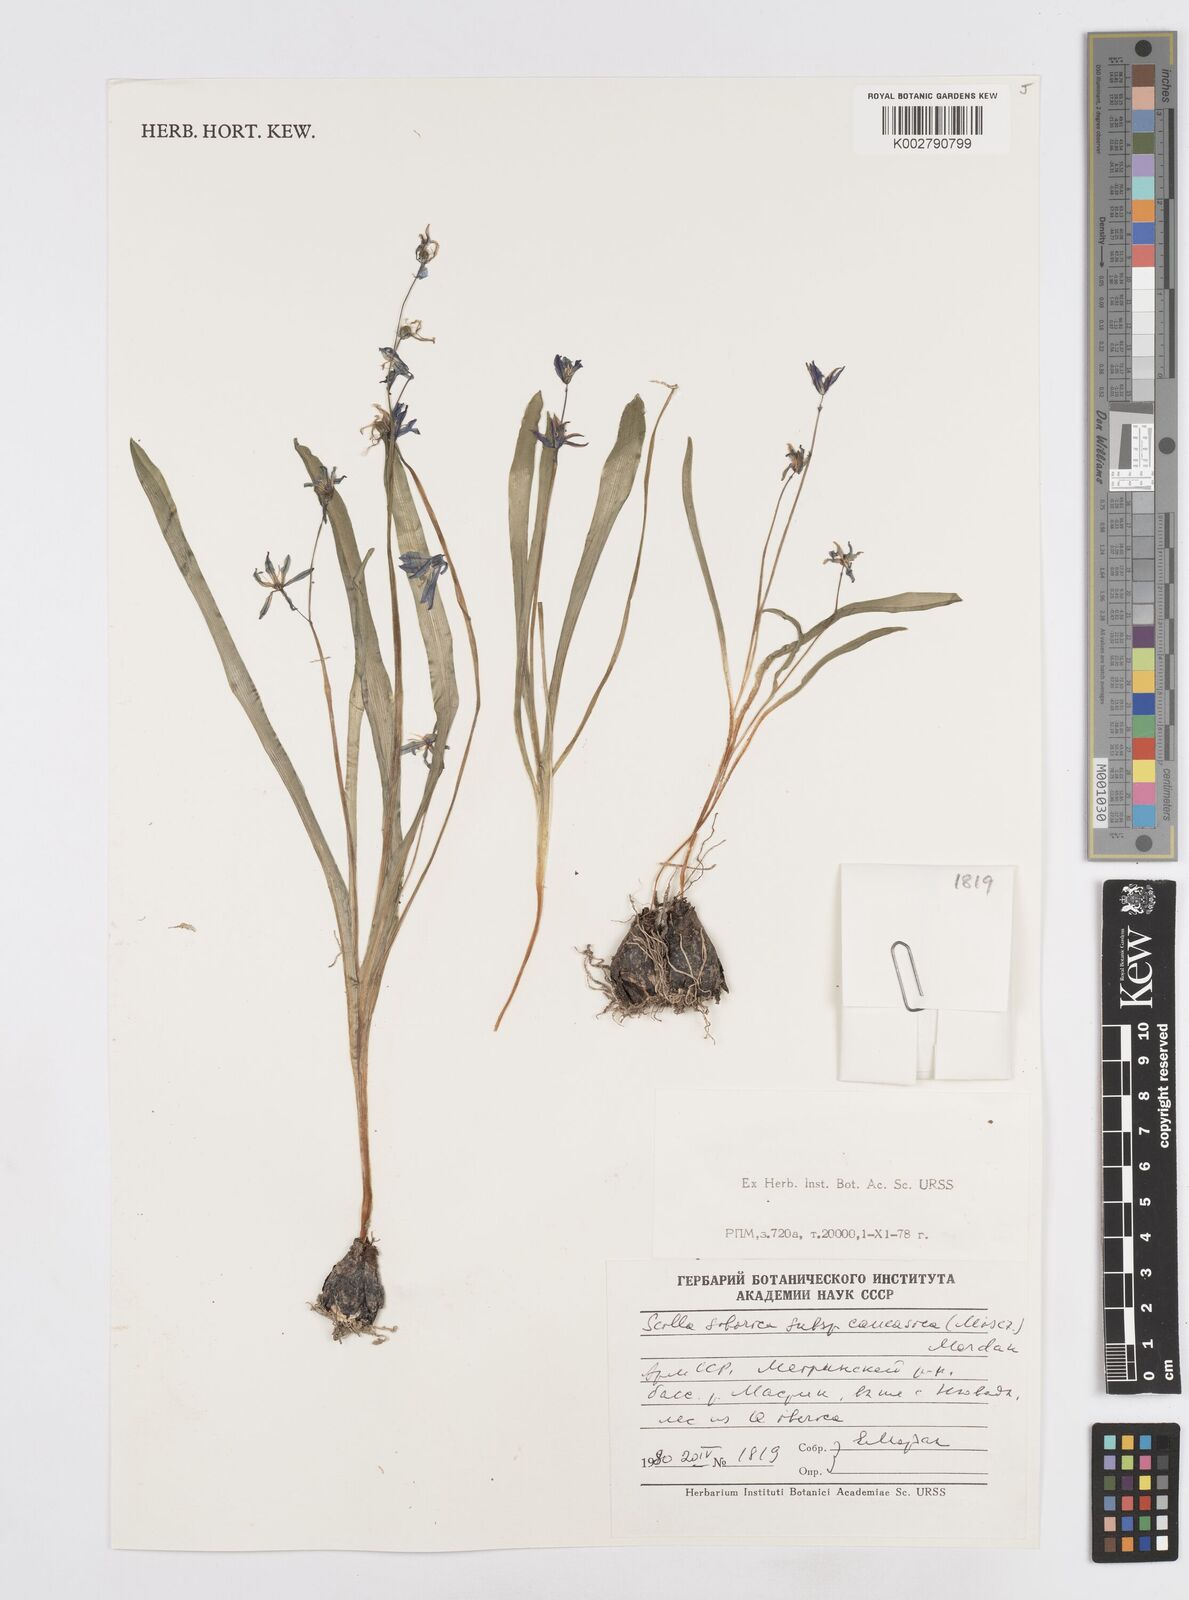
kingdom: Plantae
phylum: Tracheophyta
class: Liliopsida
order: Asparagales
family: Asparagaceae
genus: Scilla
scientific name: Scilla siberica
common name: Siberian squill
